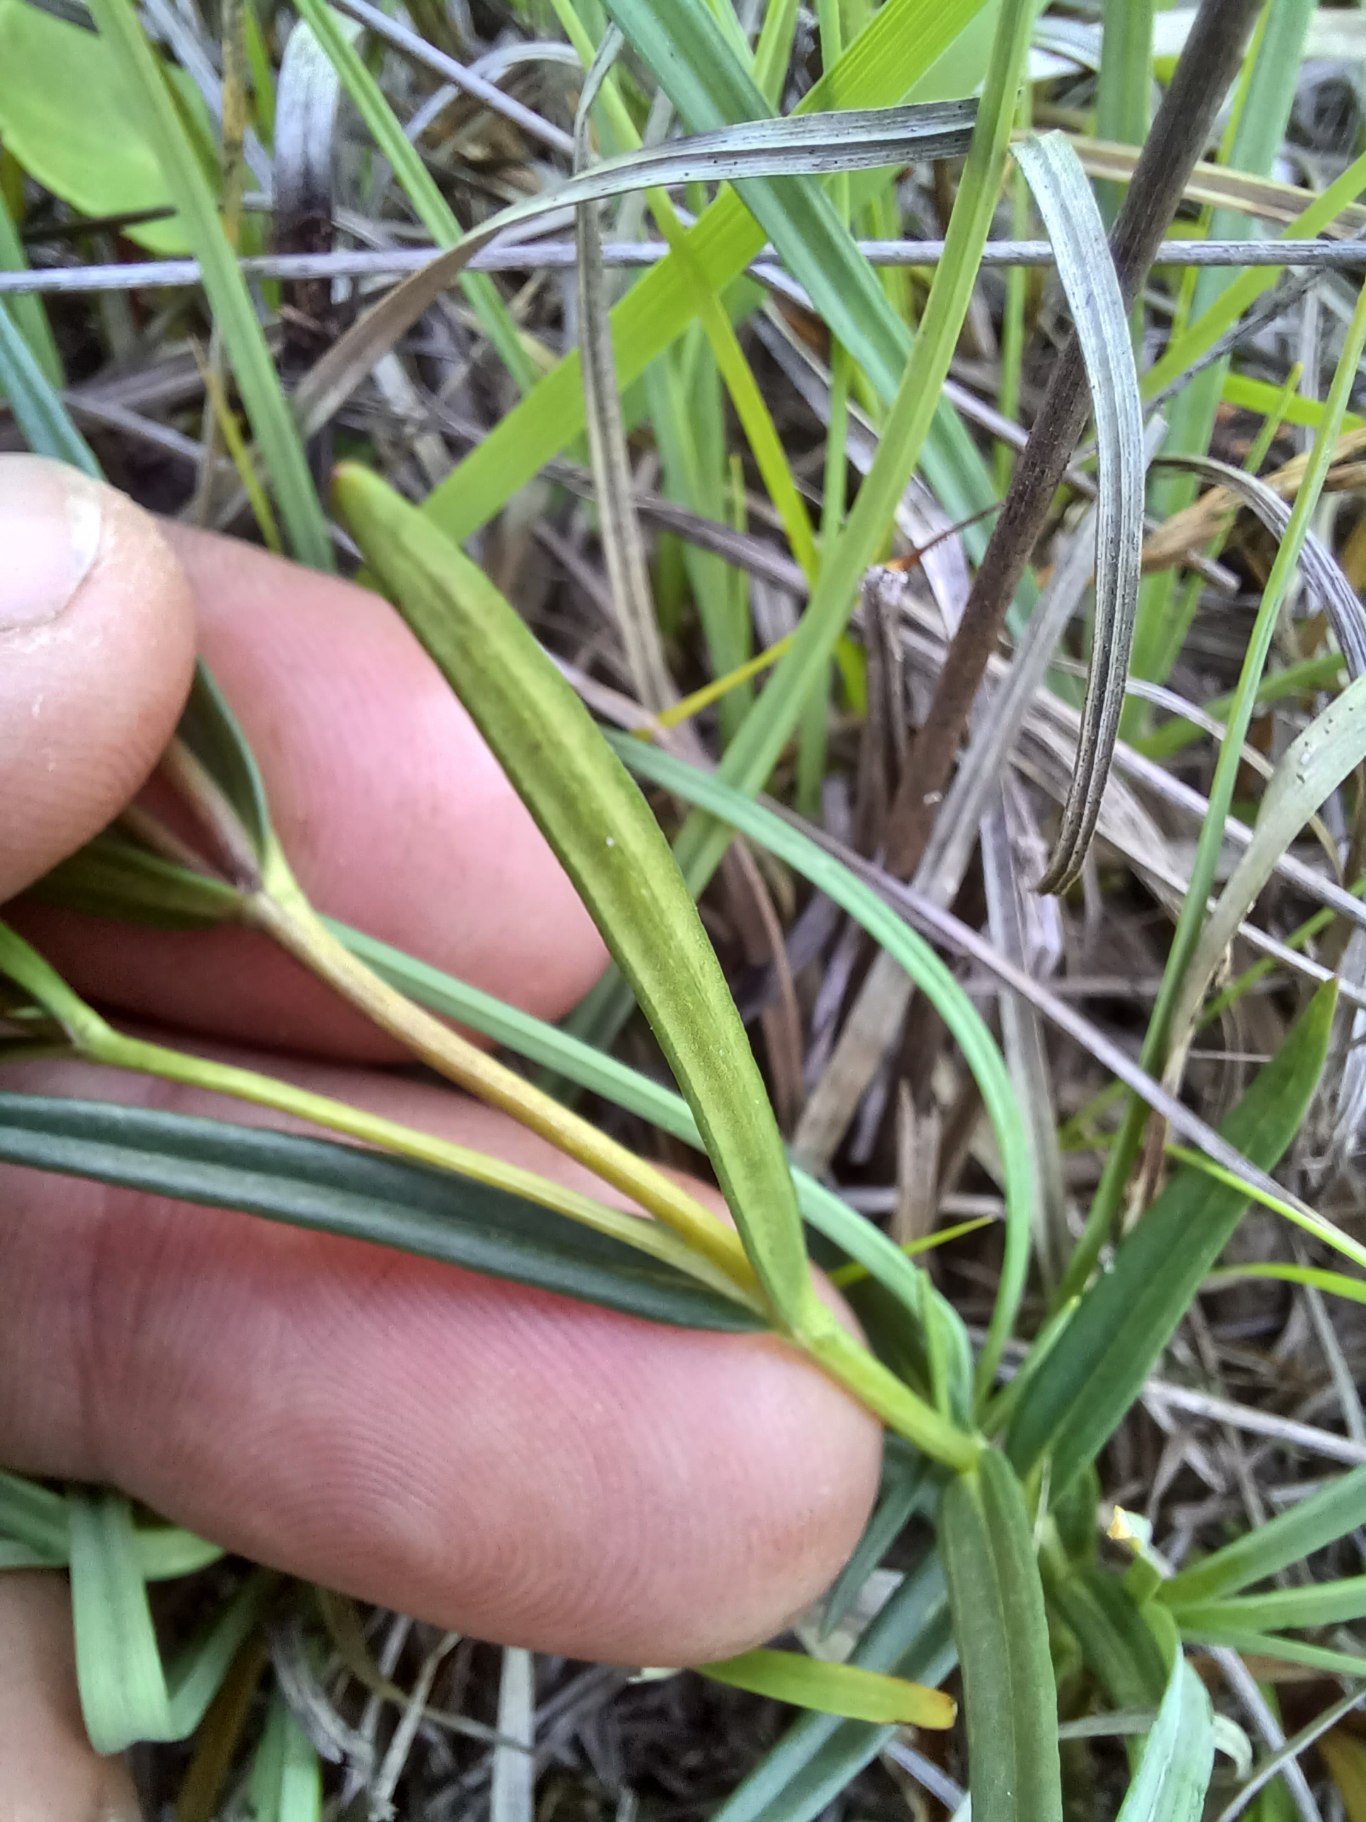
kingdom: Plantae
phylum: Tracheophyta
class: Magnoliopsida
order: Gentianales
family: Gentianaceae
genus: Gentiana
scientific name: Gentiana pneumonanthe
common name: Klokke-ensian
